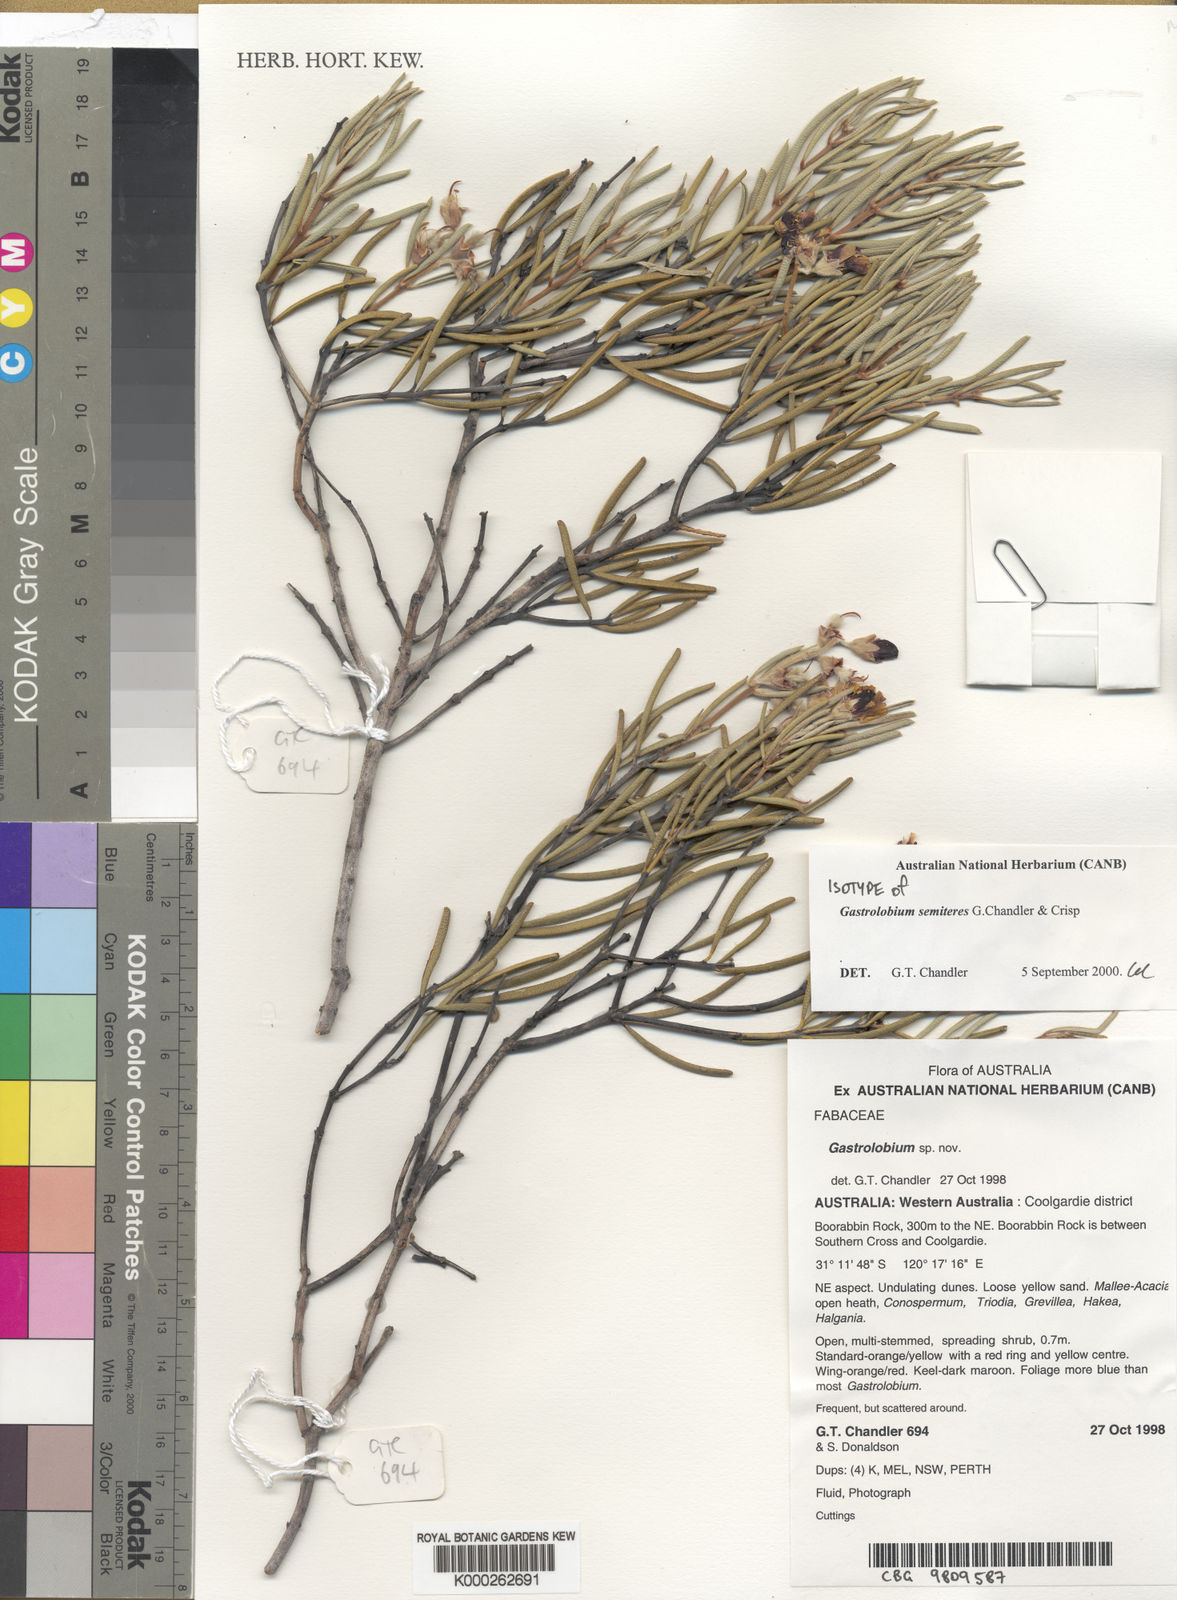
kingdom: Plantae
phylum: Tracheophyta
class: Magnoliopsida
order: Fabales
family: Fabaceae
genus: Gastrolobium
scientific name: Gastrolobium semiteres
